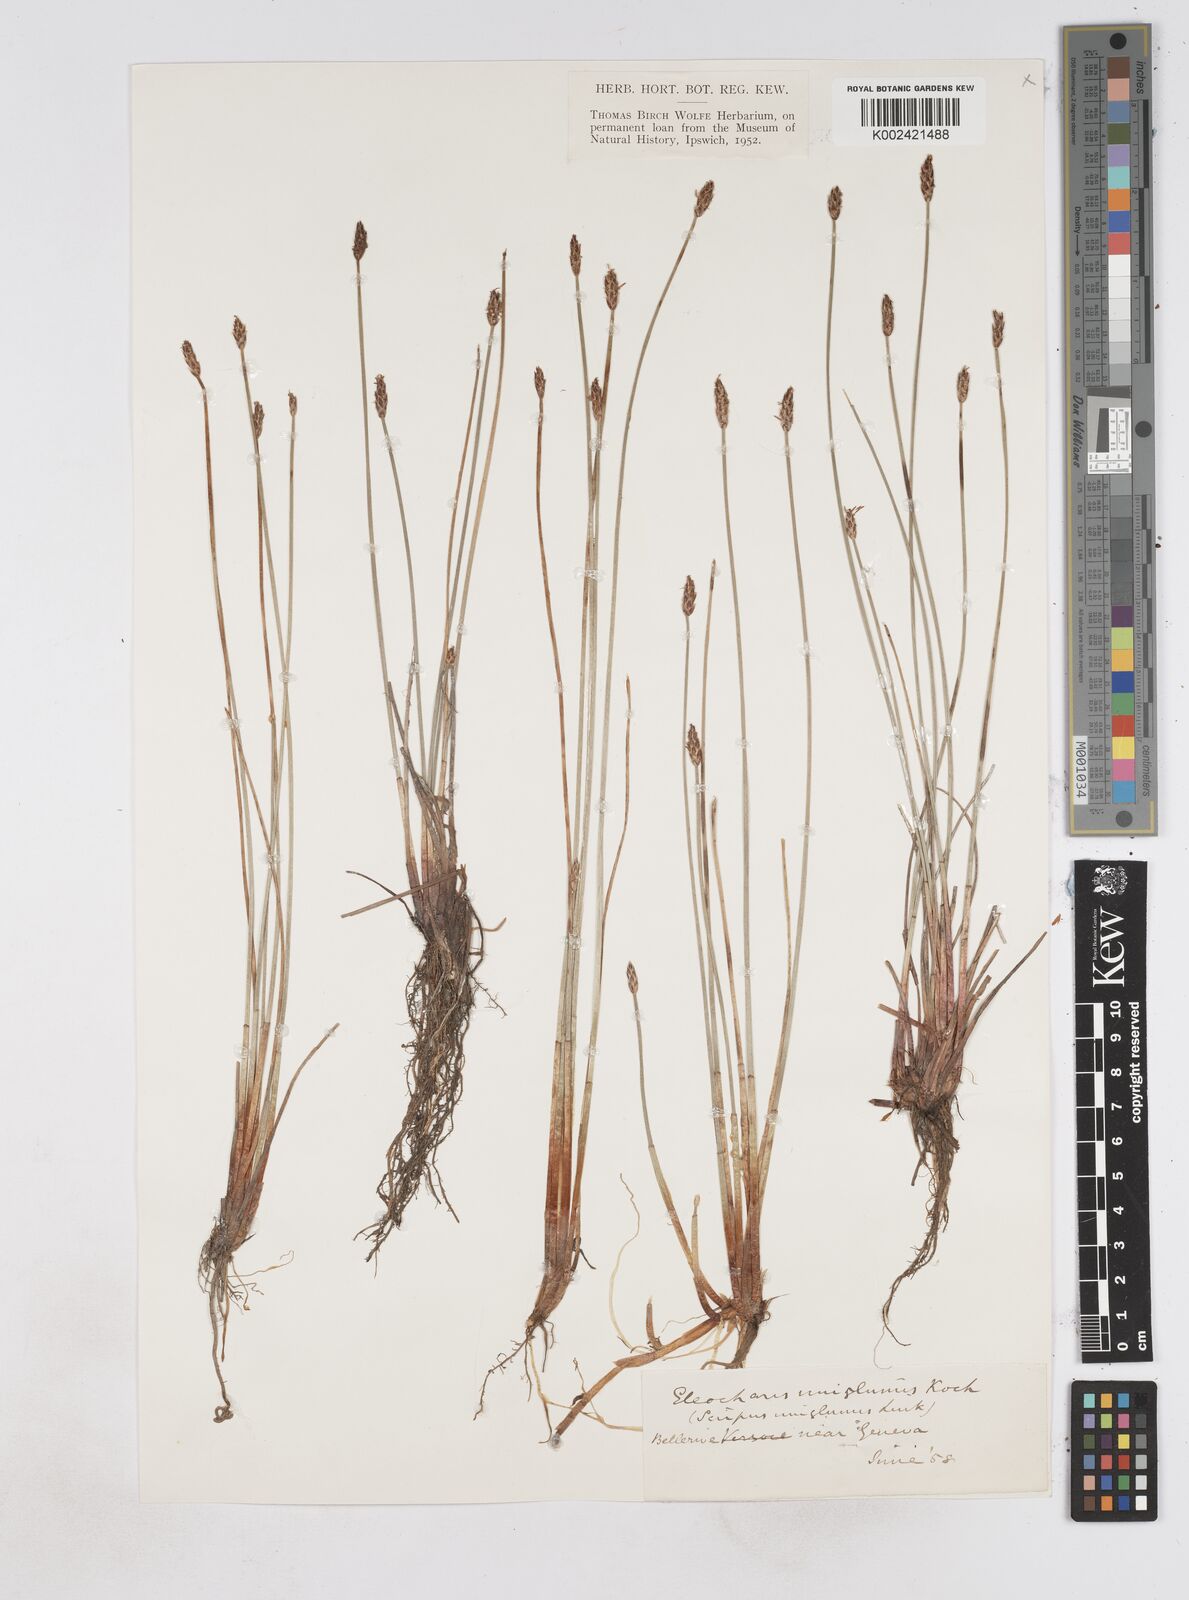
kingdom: Plantae
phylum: Tracheophyta
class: Liliopsida
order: Poales
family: Cyperaceae
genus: Eleocharis
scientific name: Eleocharis uniglumis
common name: Slender spike-rush
